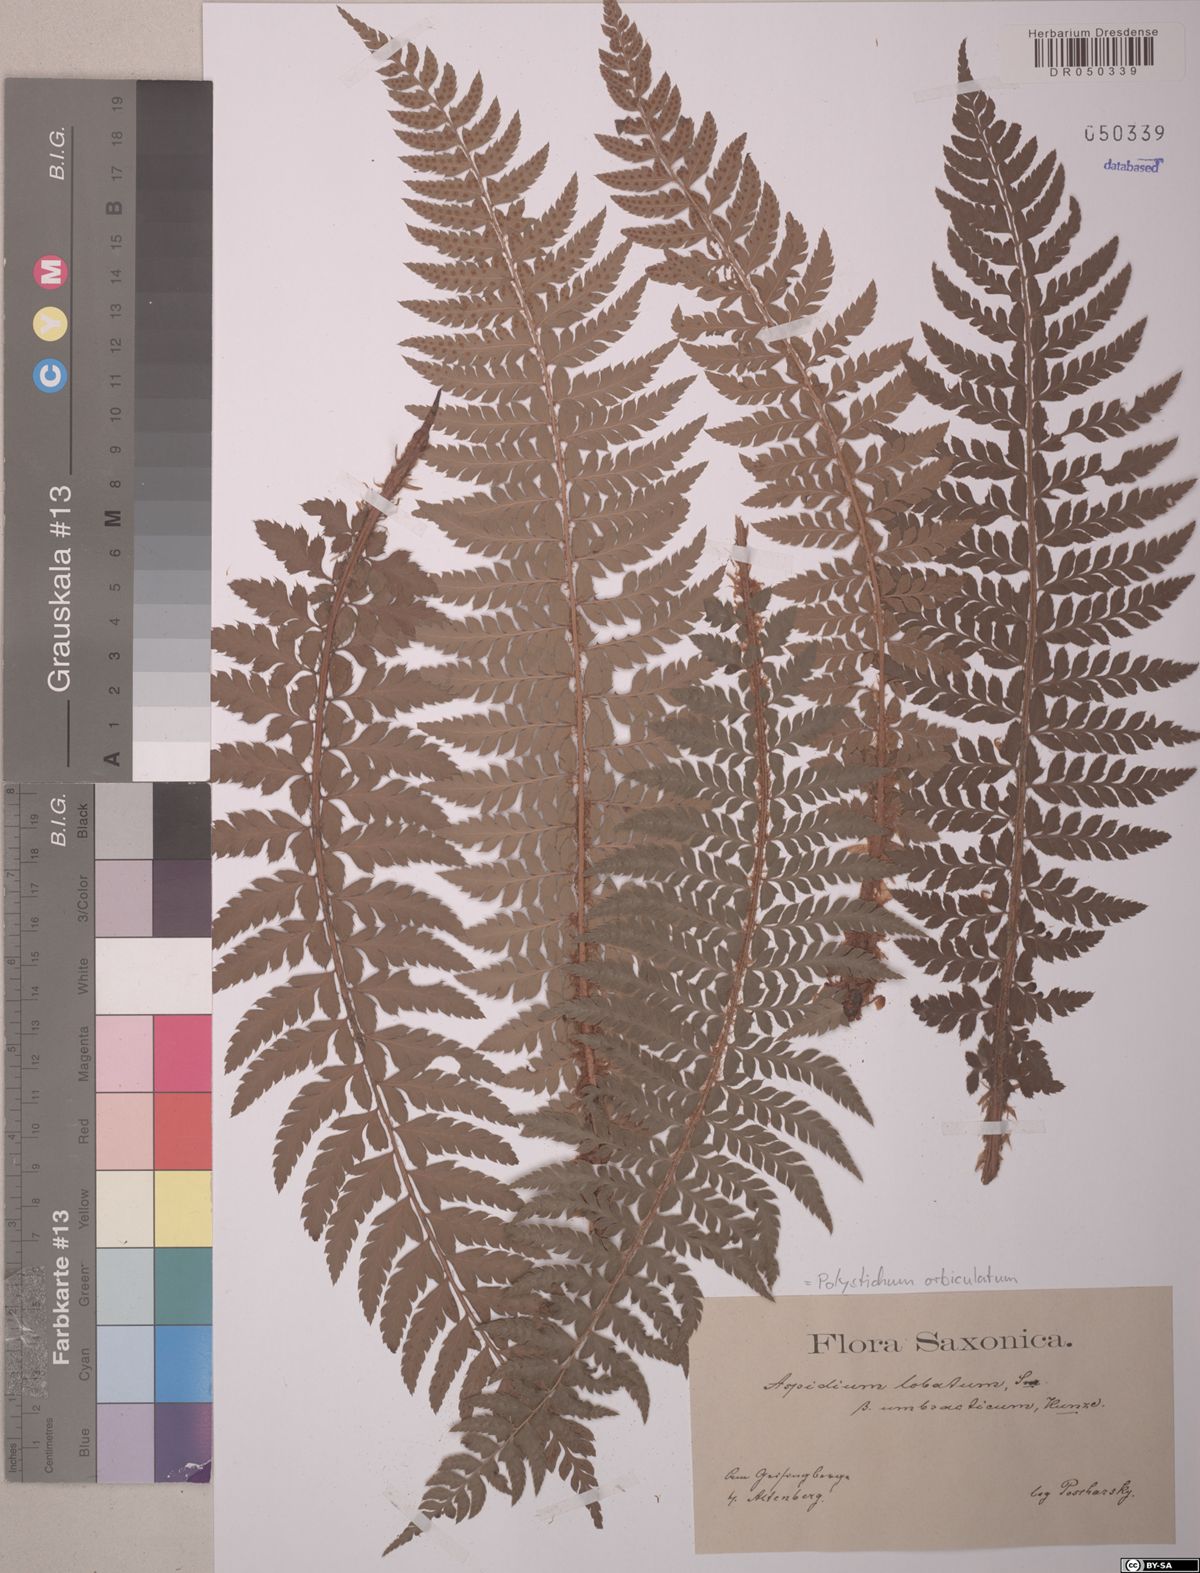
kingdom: Plantae
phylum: Tracheophyta
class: Polypodiopsida
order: Polypodiales
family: Dryopteridaceae
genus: Polystichum
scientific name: Polystichum aculeatum
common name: Hard shield-fern
